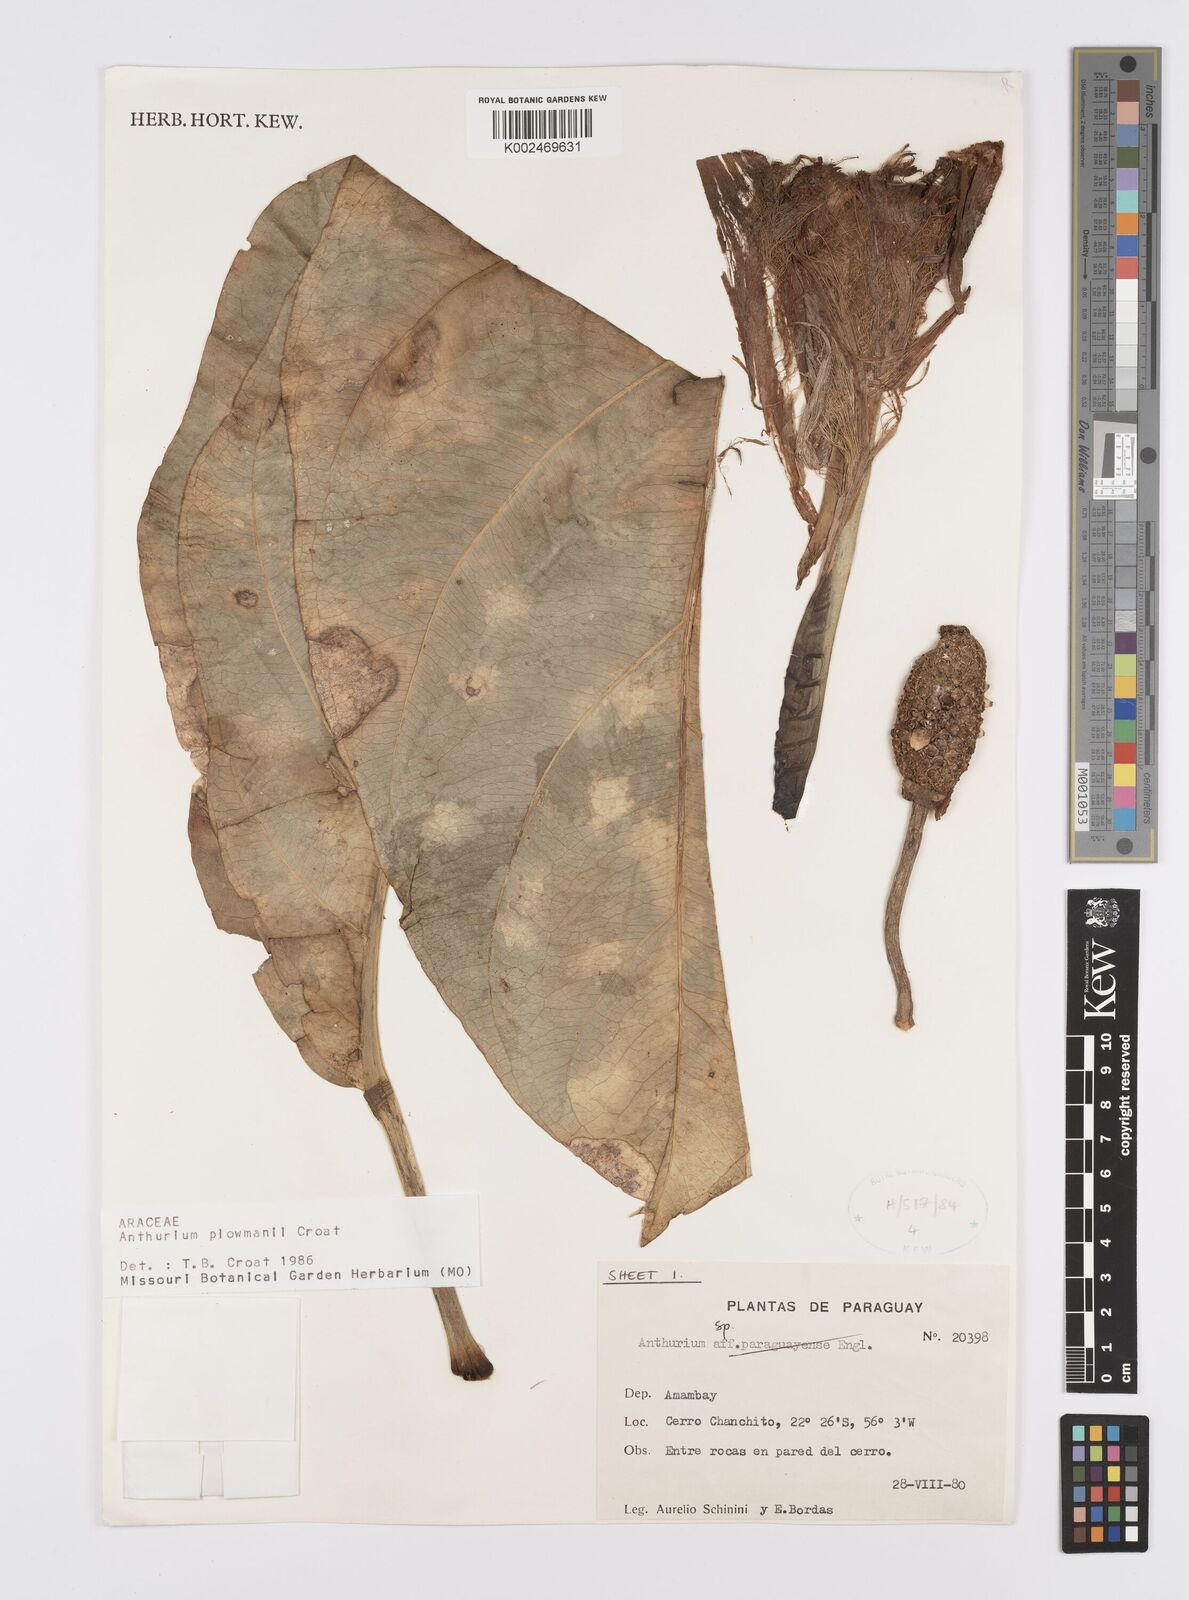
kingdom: Plantae
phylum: Tracheophyta
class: Liliopsida
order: Alismatales
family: Araceae
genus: Anthurium
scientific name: Anthurium plowmanii
